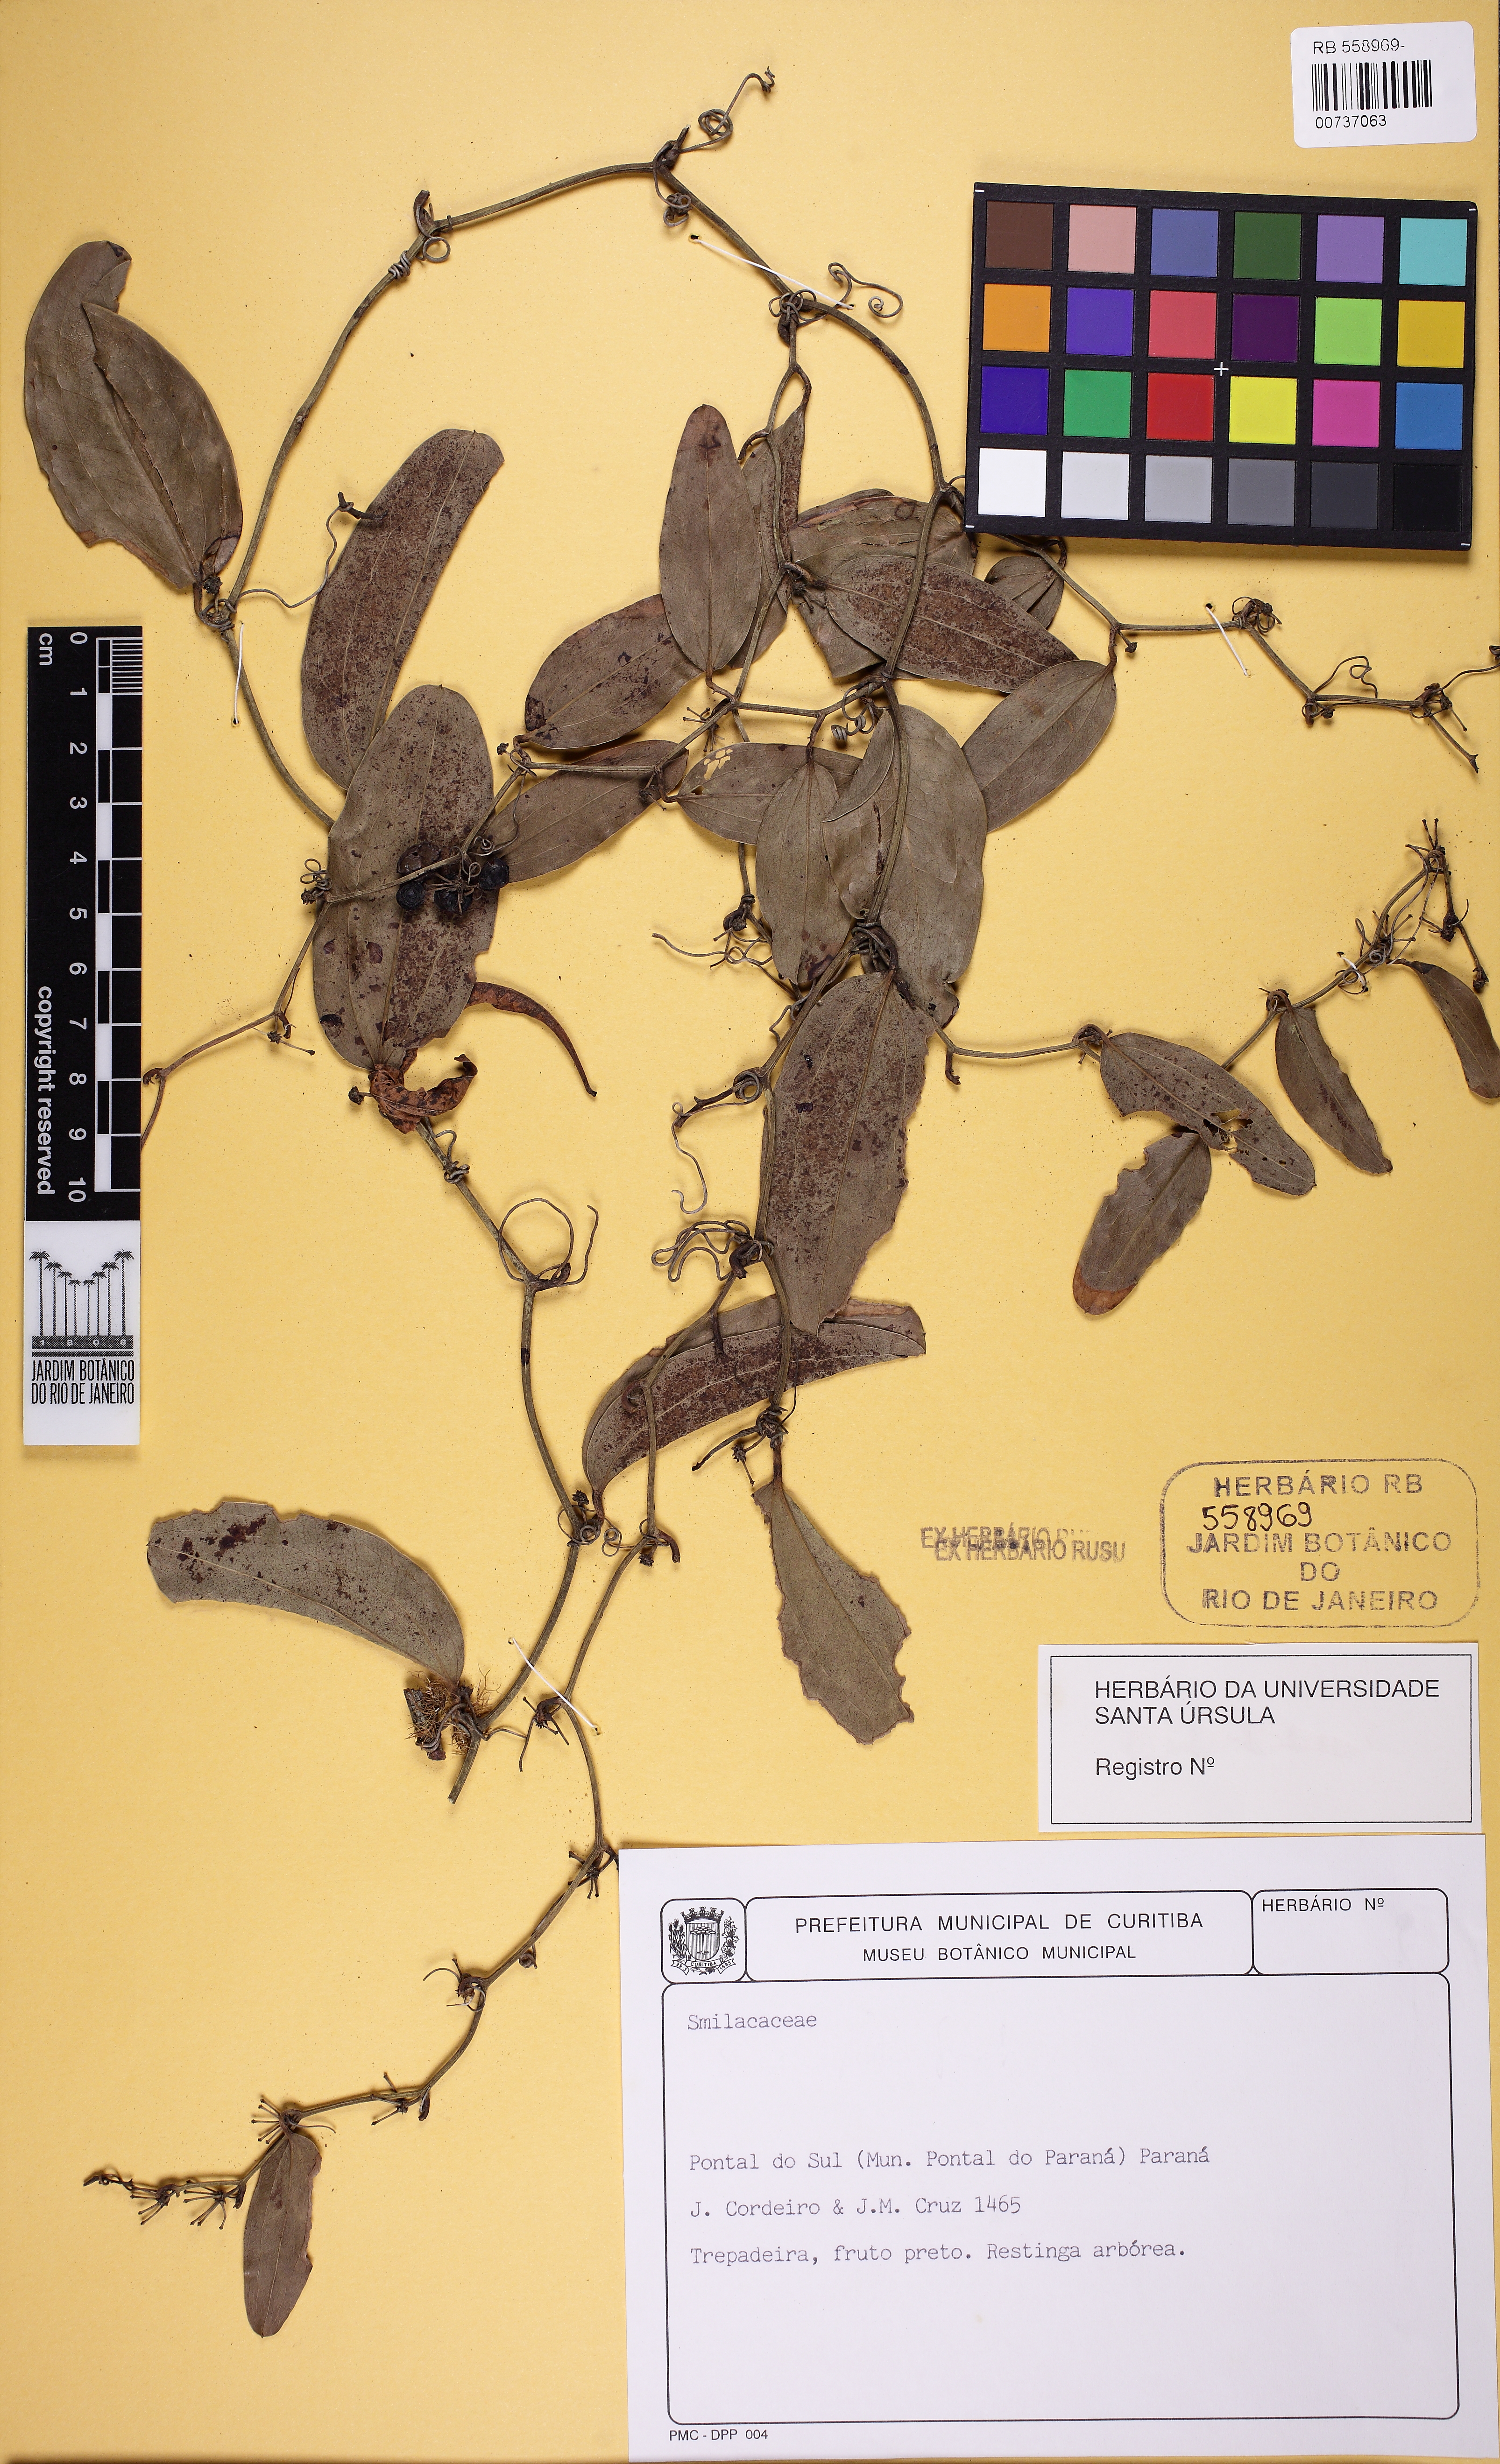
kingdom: Plantae
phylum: Tracheophyta
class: Liliopsida
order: Liliales
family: Smilacaceae
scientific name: Smilacaceae
